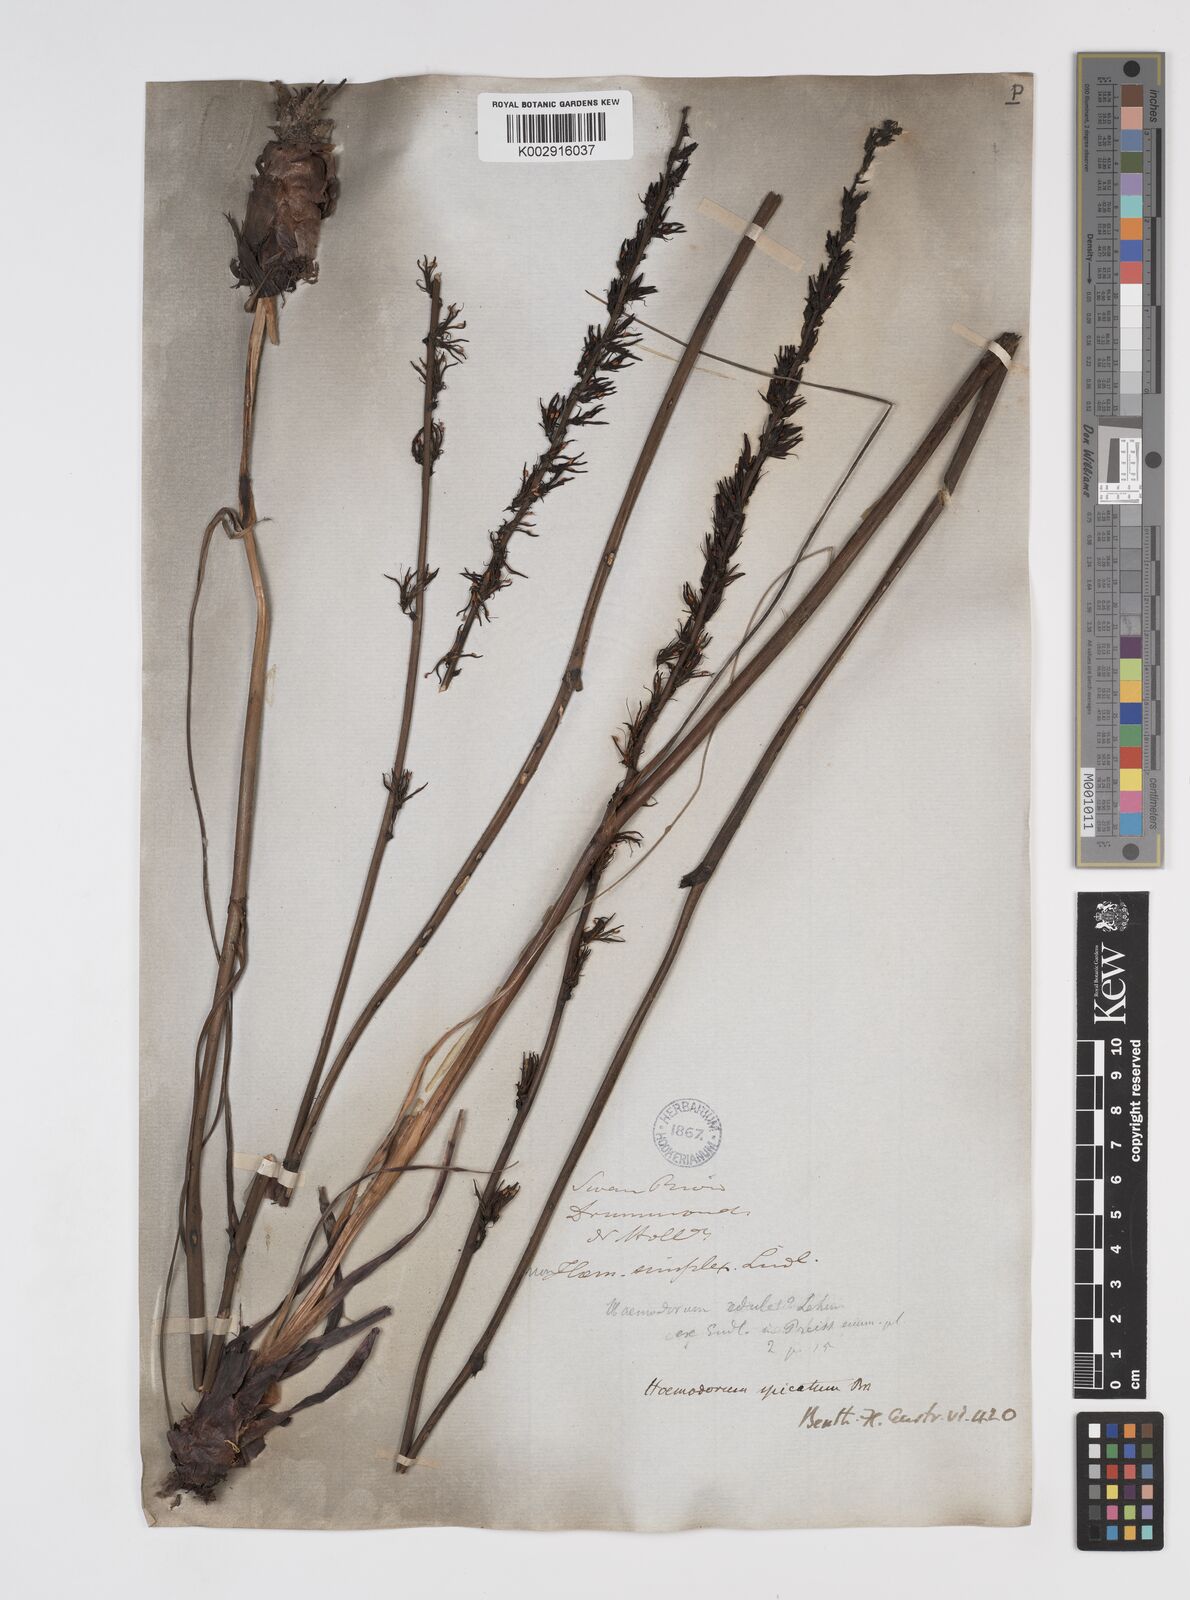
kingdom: Plantae
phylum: Tracheophyta
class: Liliopsida
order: Commelinales
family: Haemodoraceae
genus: Haemodorum
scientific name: Haemodorum spicatum
